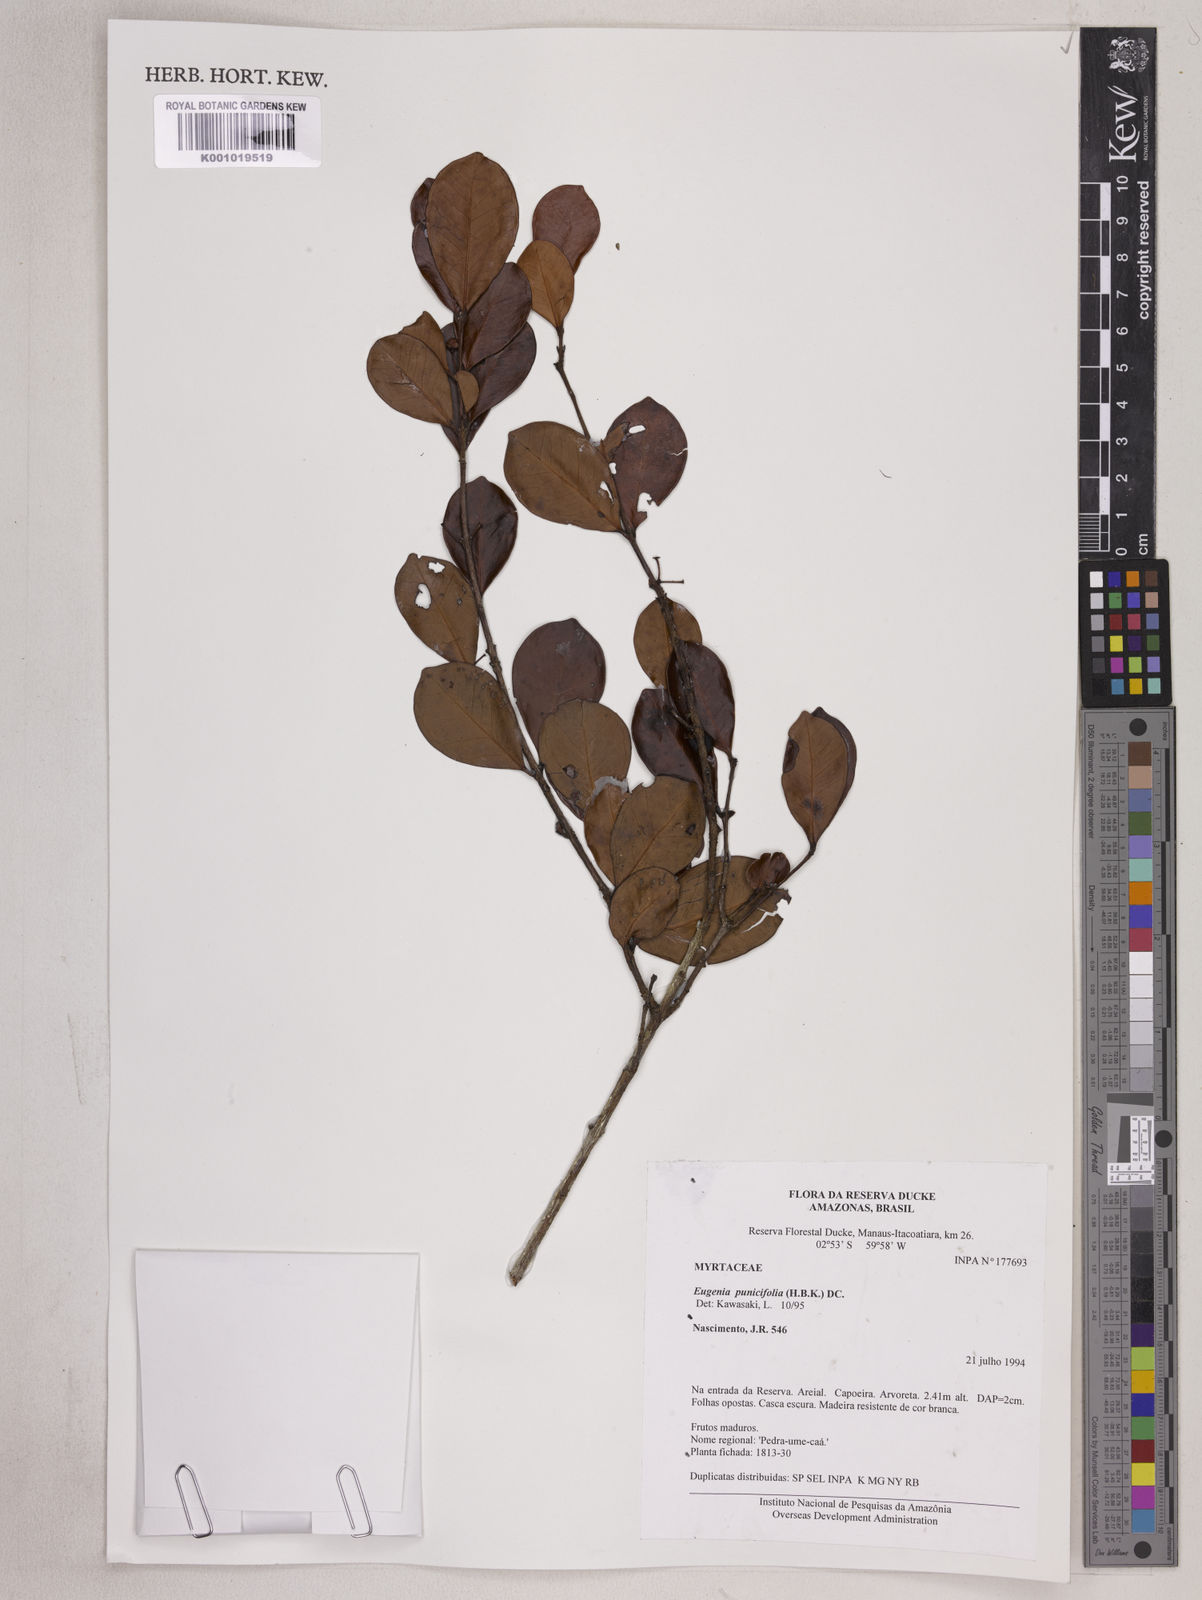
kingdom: Plantae
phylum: Tracheophyta
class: Magnoliopsida
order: Myrtales
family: Myrtaceae
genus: Eugenia
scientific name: Eugenia punicifolia
